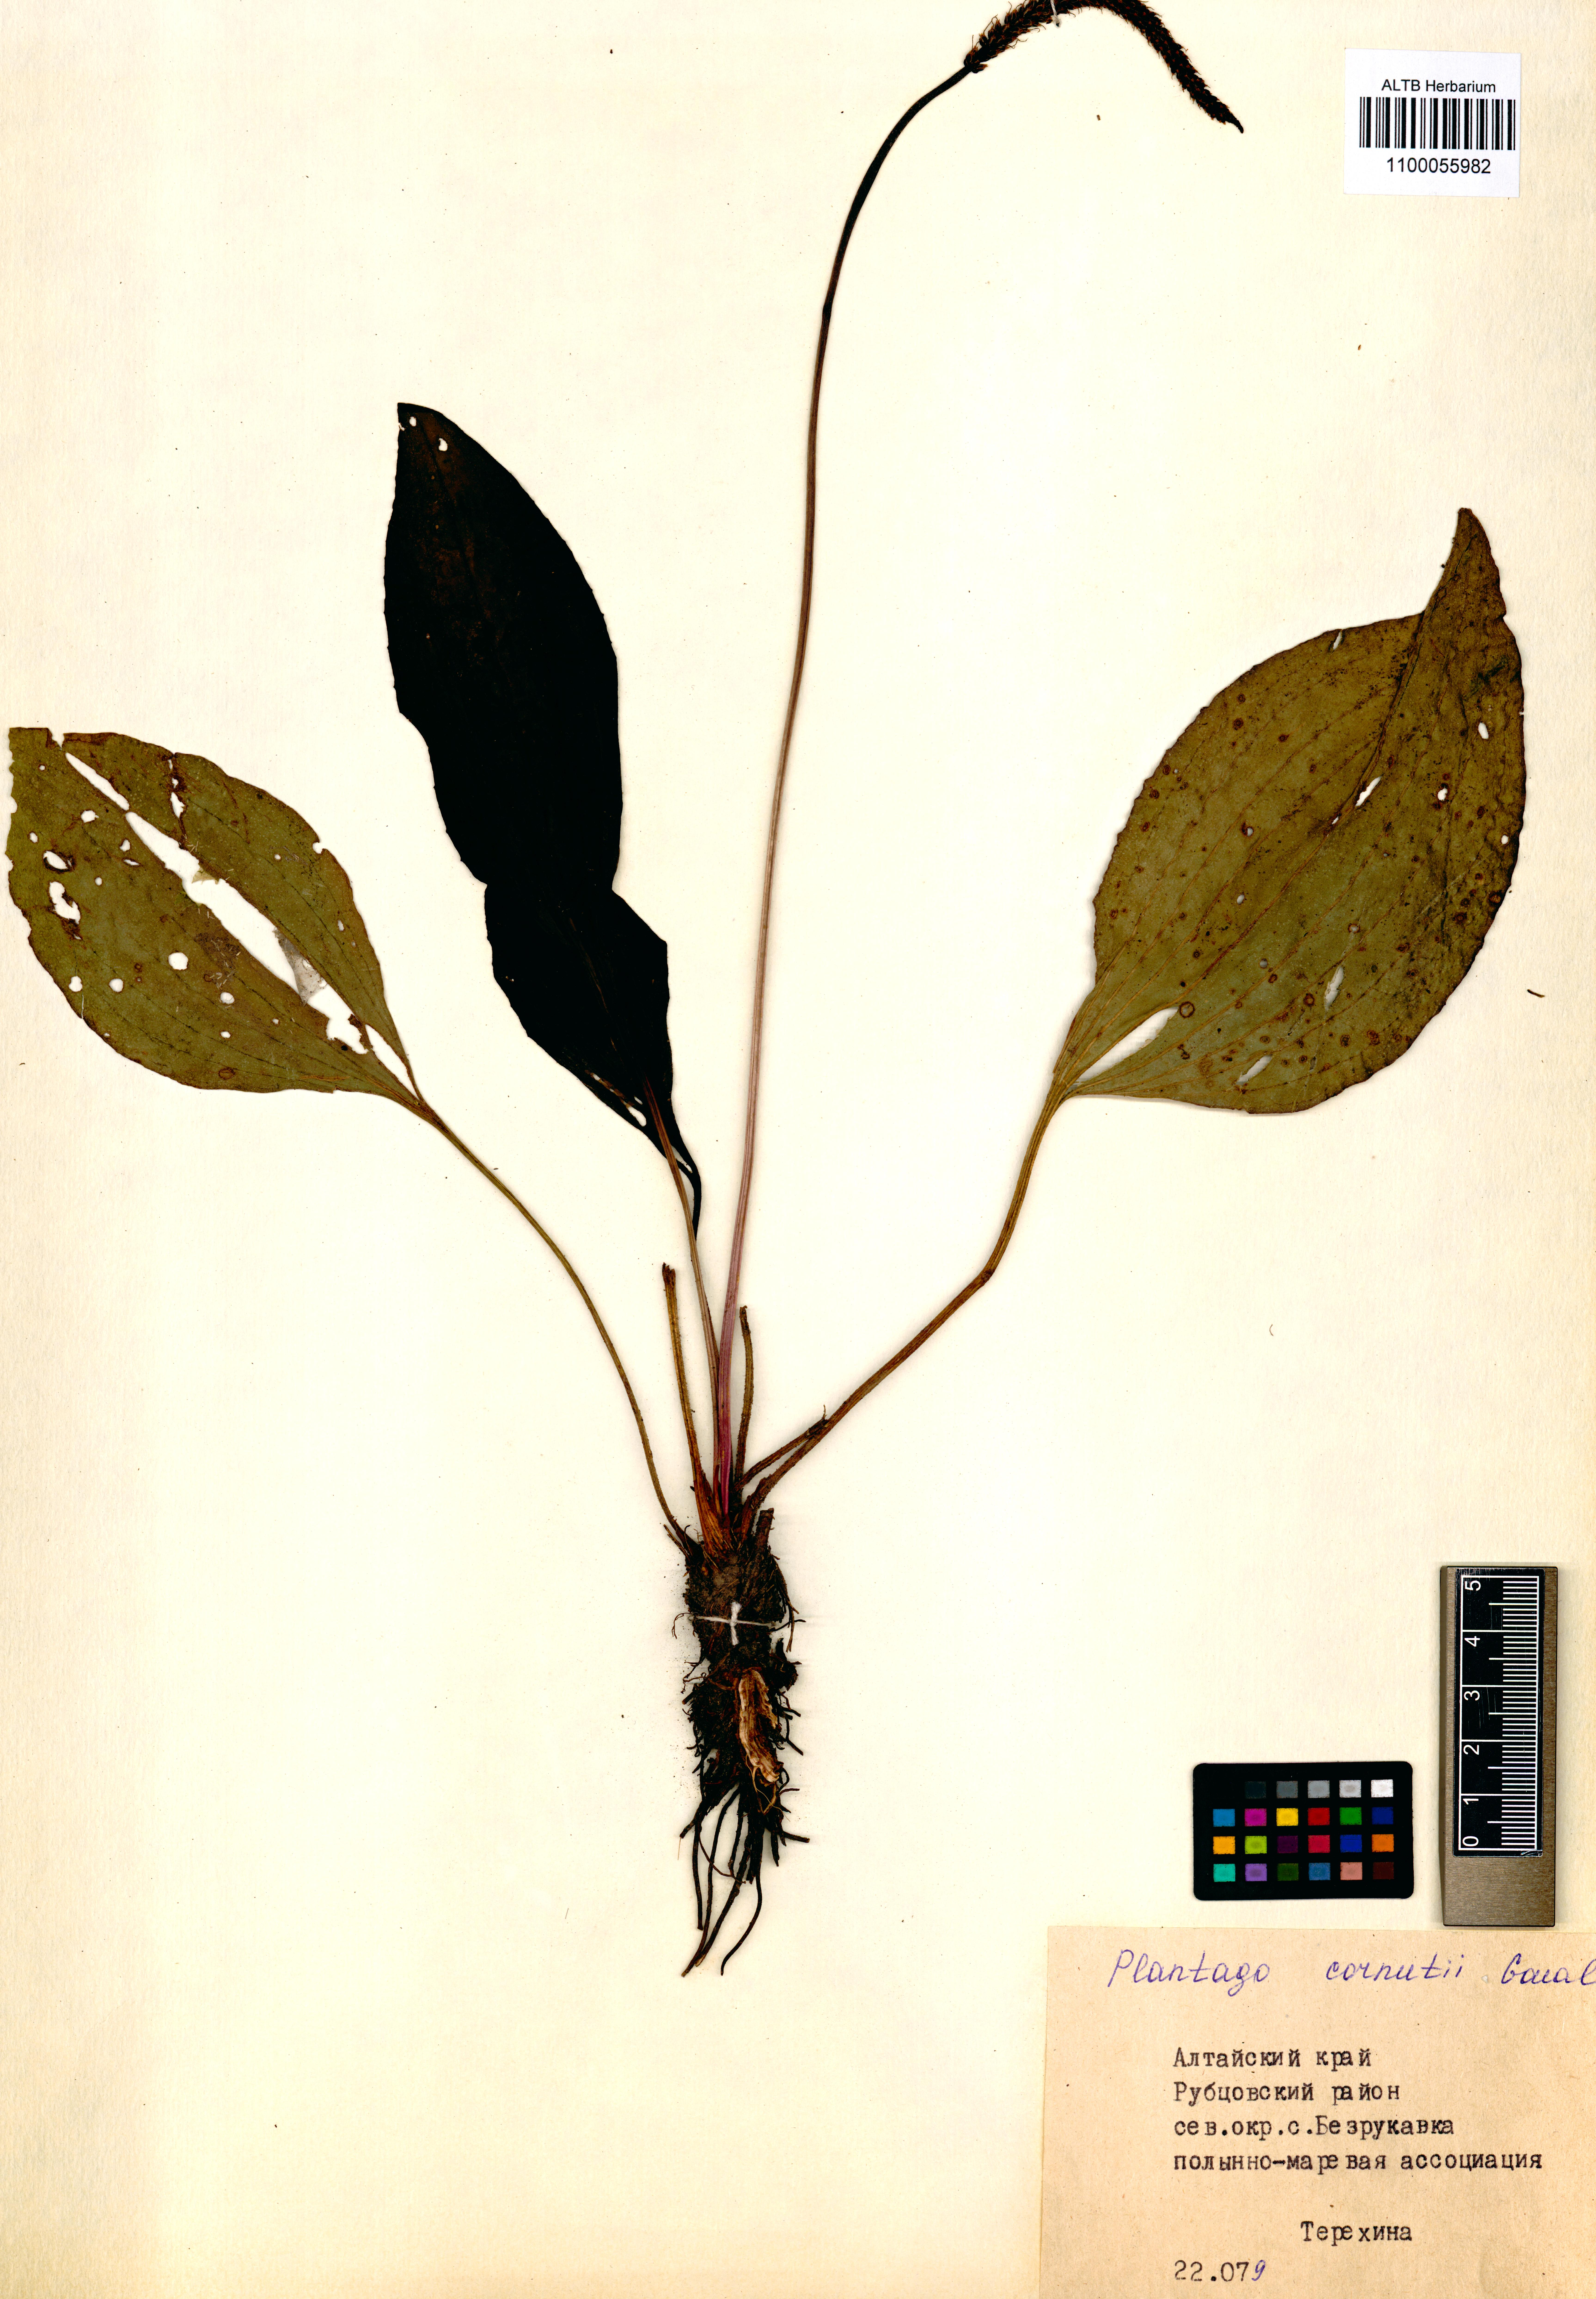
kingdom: Plantae
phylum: Tracheophyta
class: Magnoliopsida
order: Lamiales
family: Plantaginaceae
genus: Plantago
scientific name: Plantago cornuti
